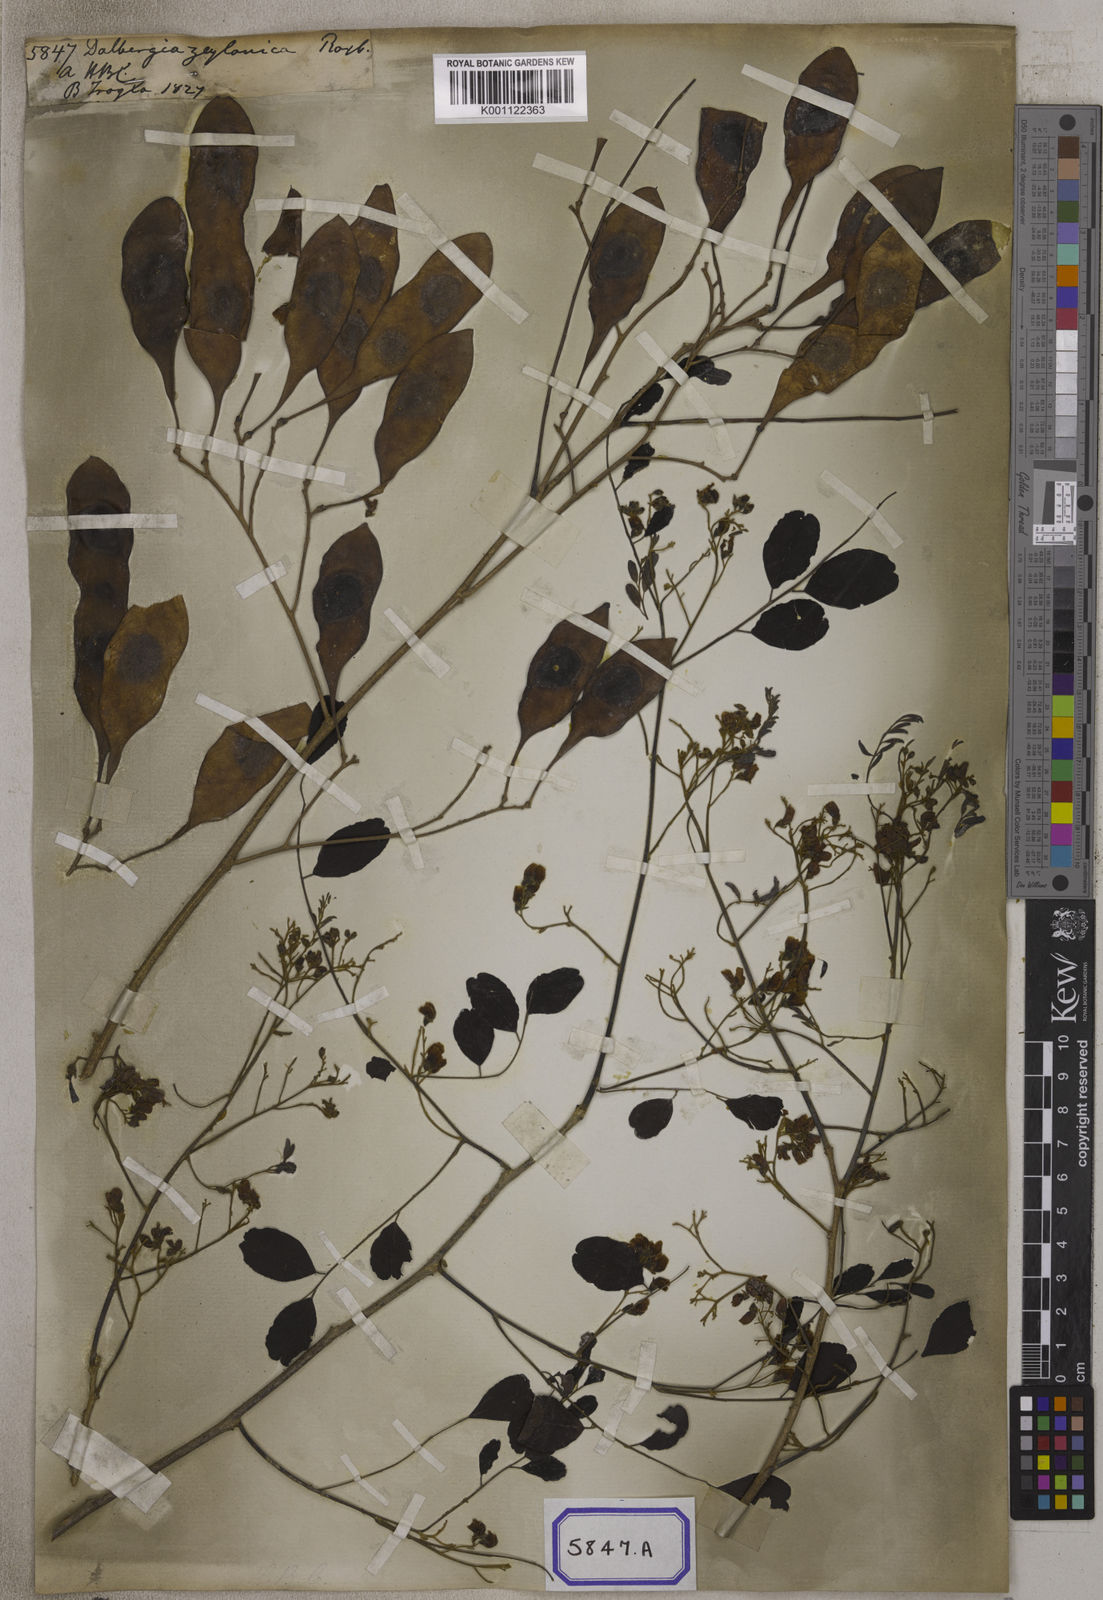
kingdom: Plantae
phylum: Tracheophyta
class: Magnoliopsida
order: Fabales
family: Fabaceae
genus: Dalbergia
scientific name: Dalbergia lanceolaria
